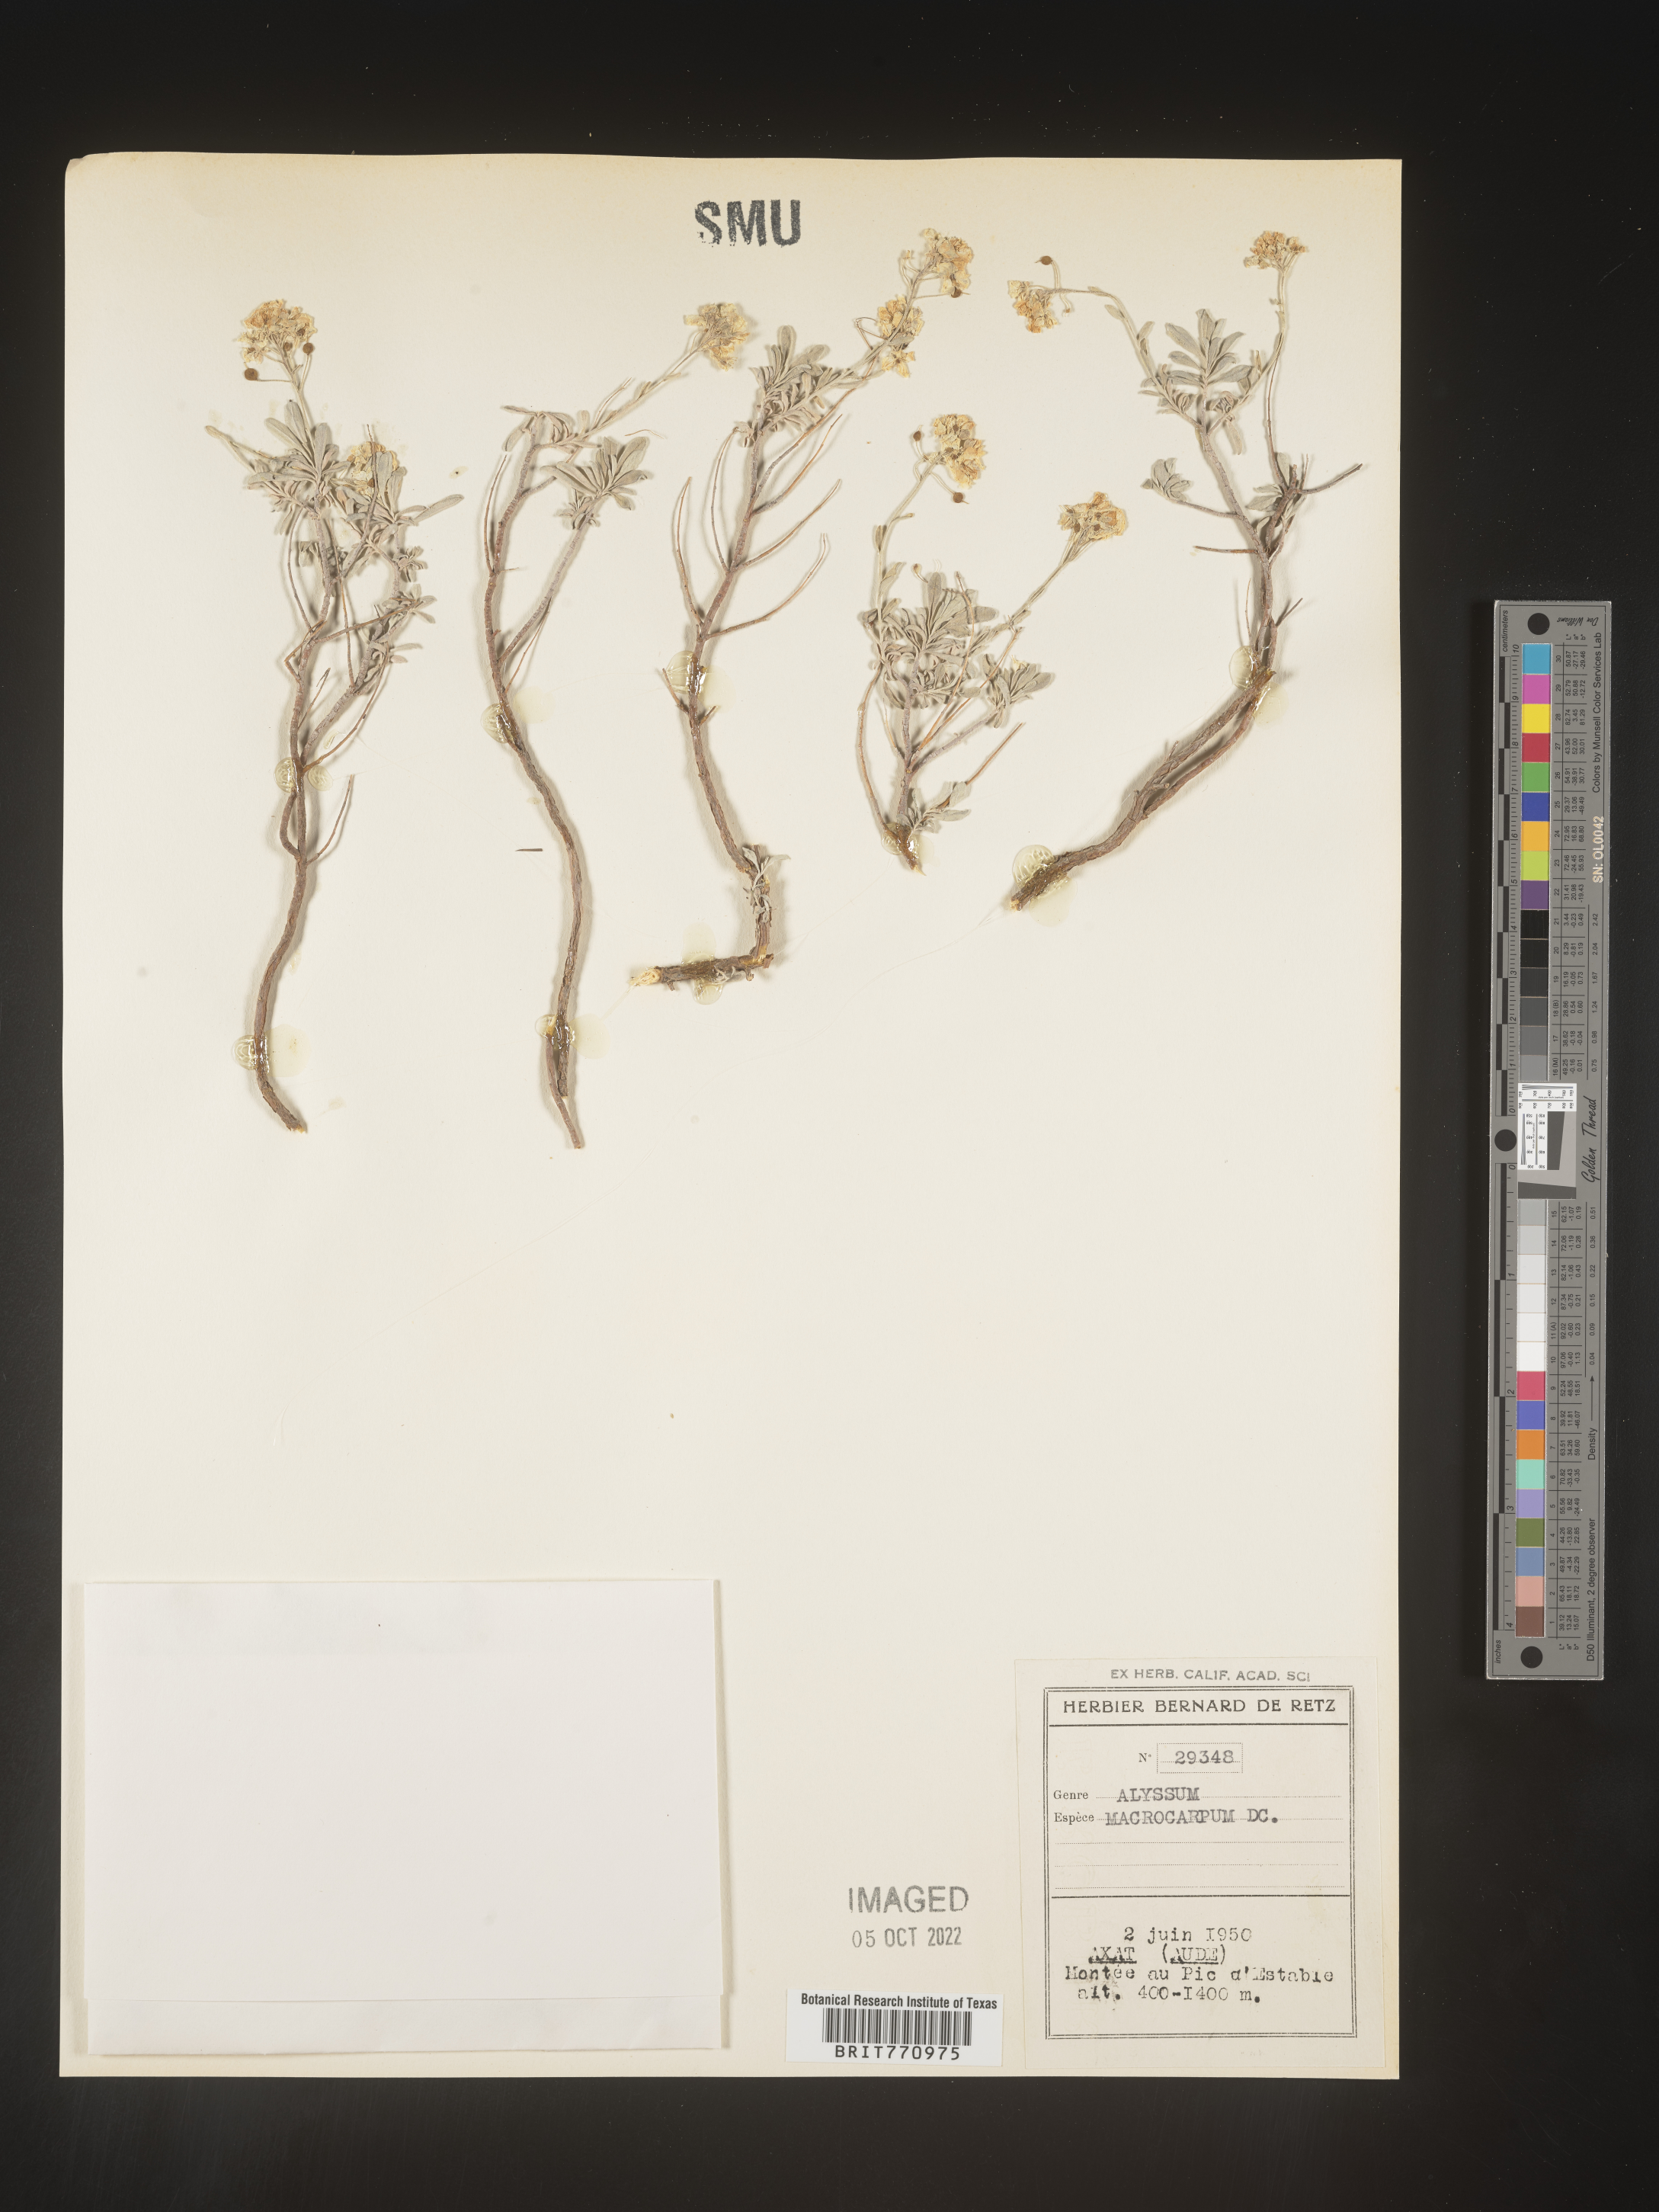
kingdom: Plantae
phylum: Tracheophyta
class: Magnoliopsida
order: Brassicales
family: Brassicaceae
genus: Alyssum
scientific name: Alyssum
